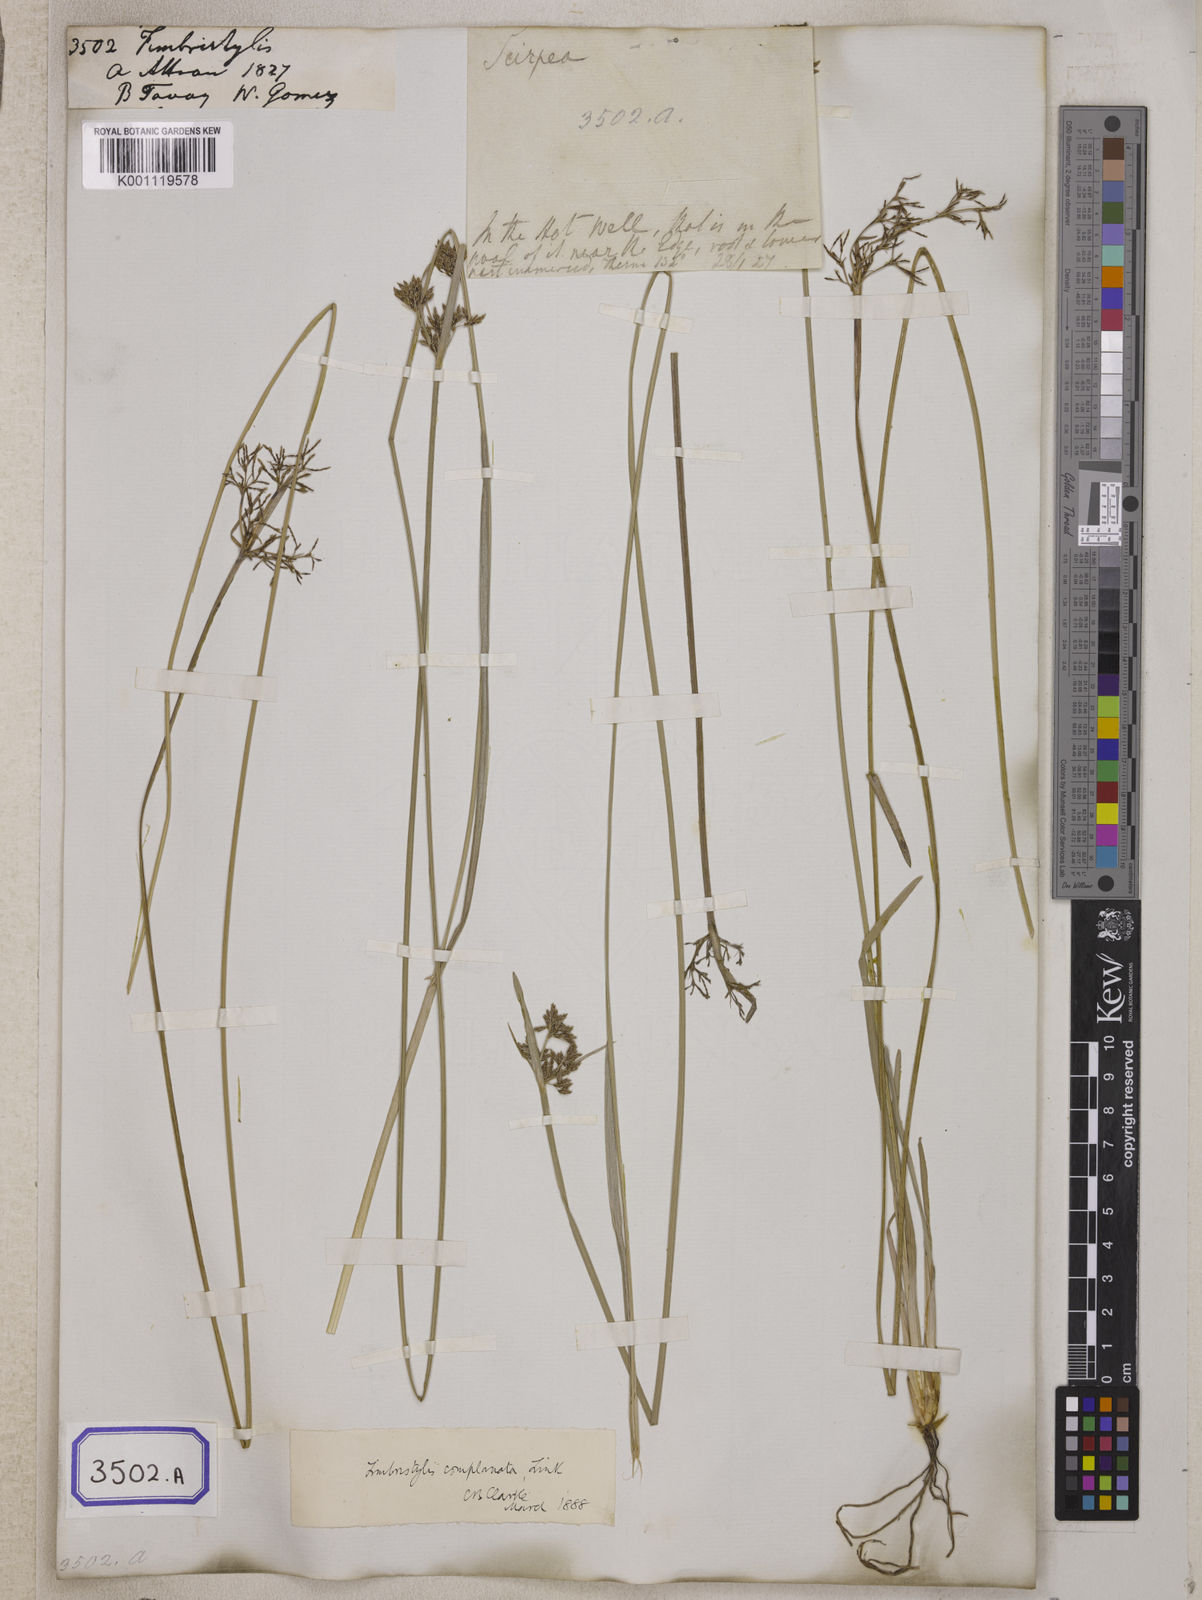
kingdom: Plantae
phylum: Tracheophyta
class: Liliopsida
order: Poales
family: Cyperaceae
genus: Fimbristylis
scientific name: Fimbristylis
